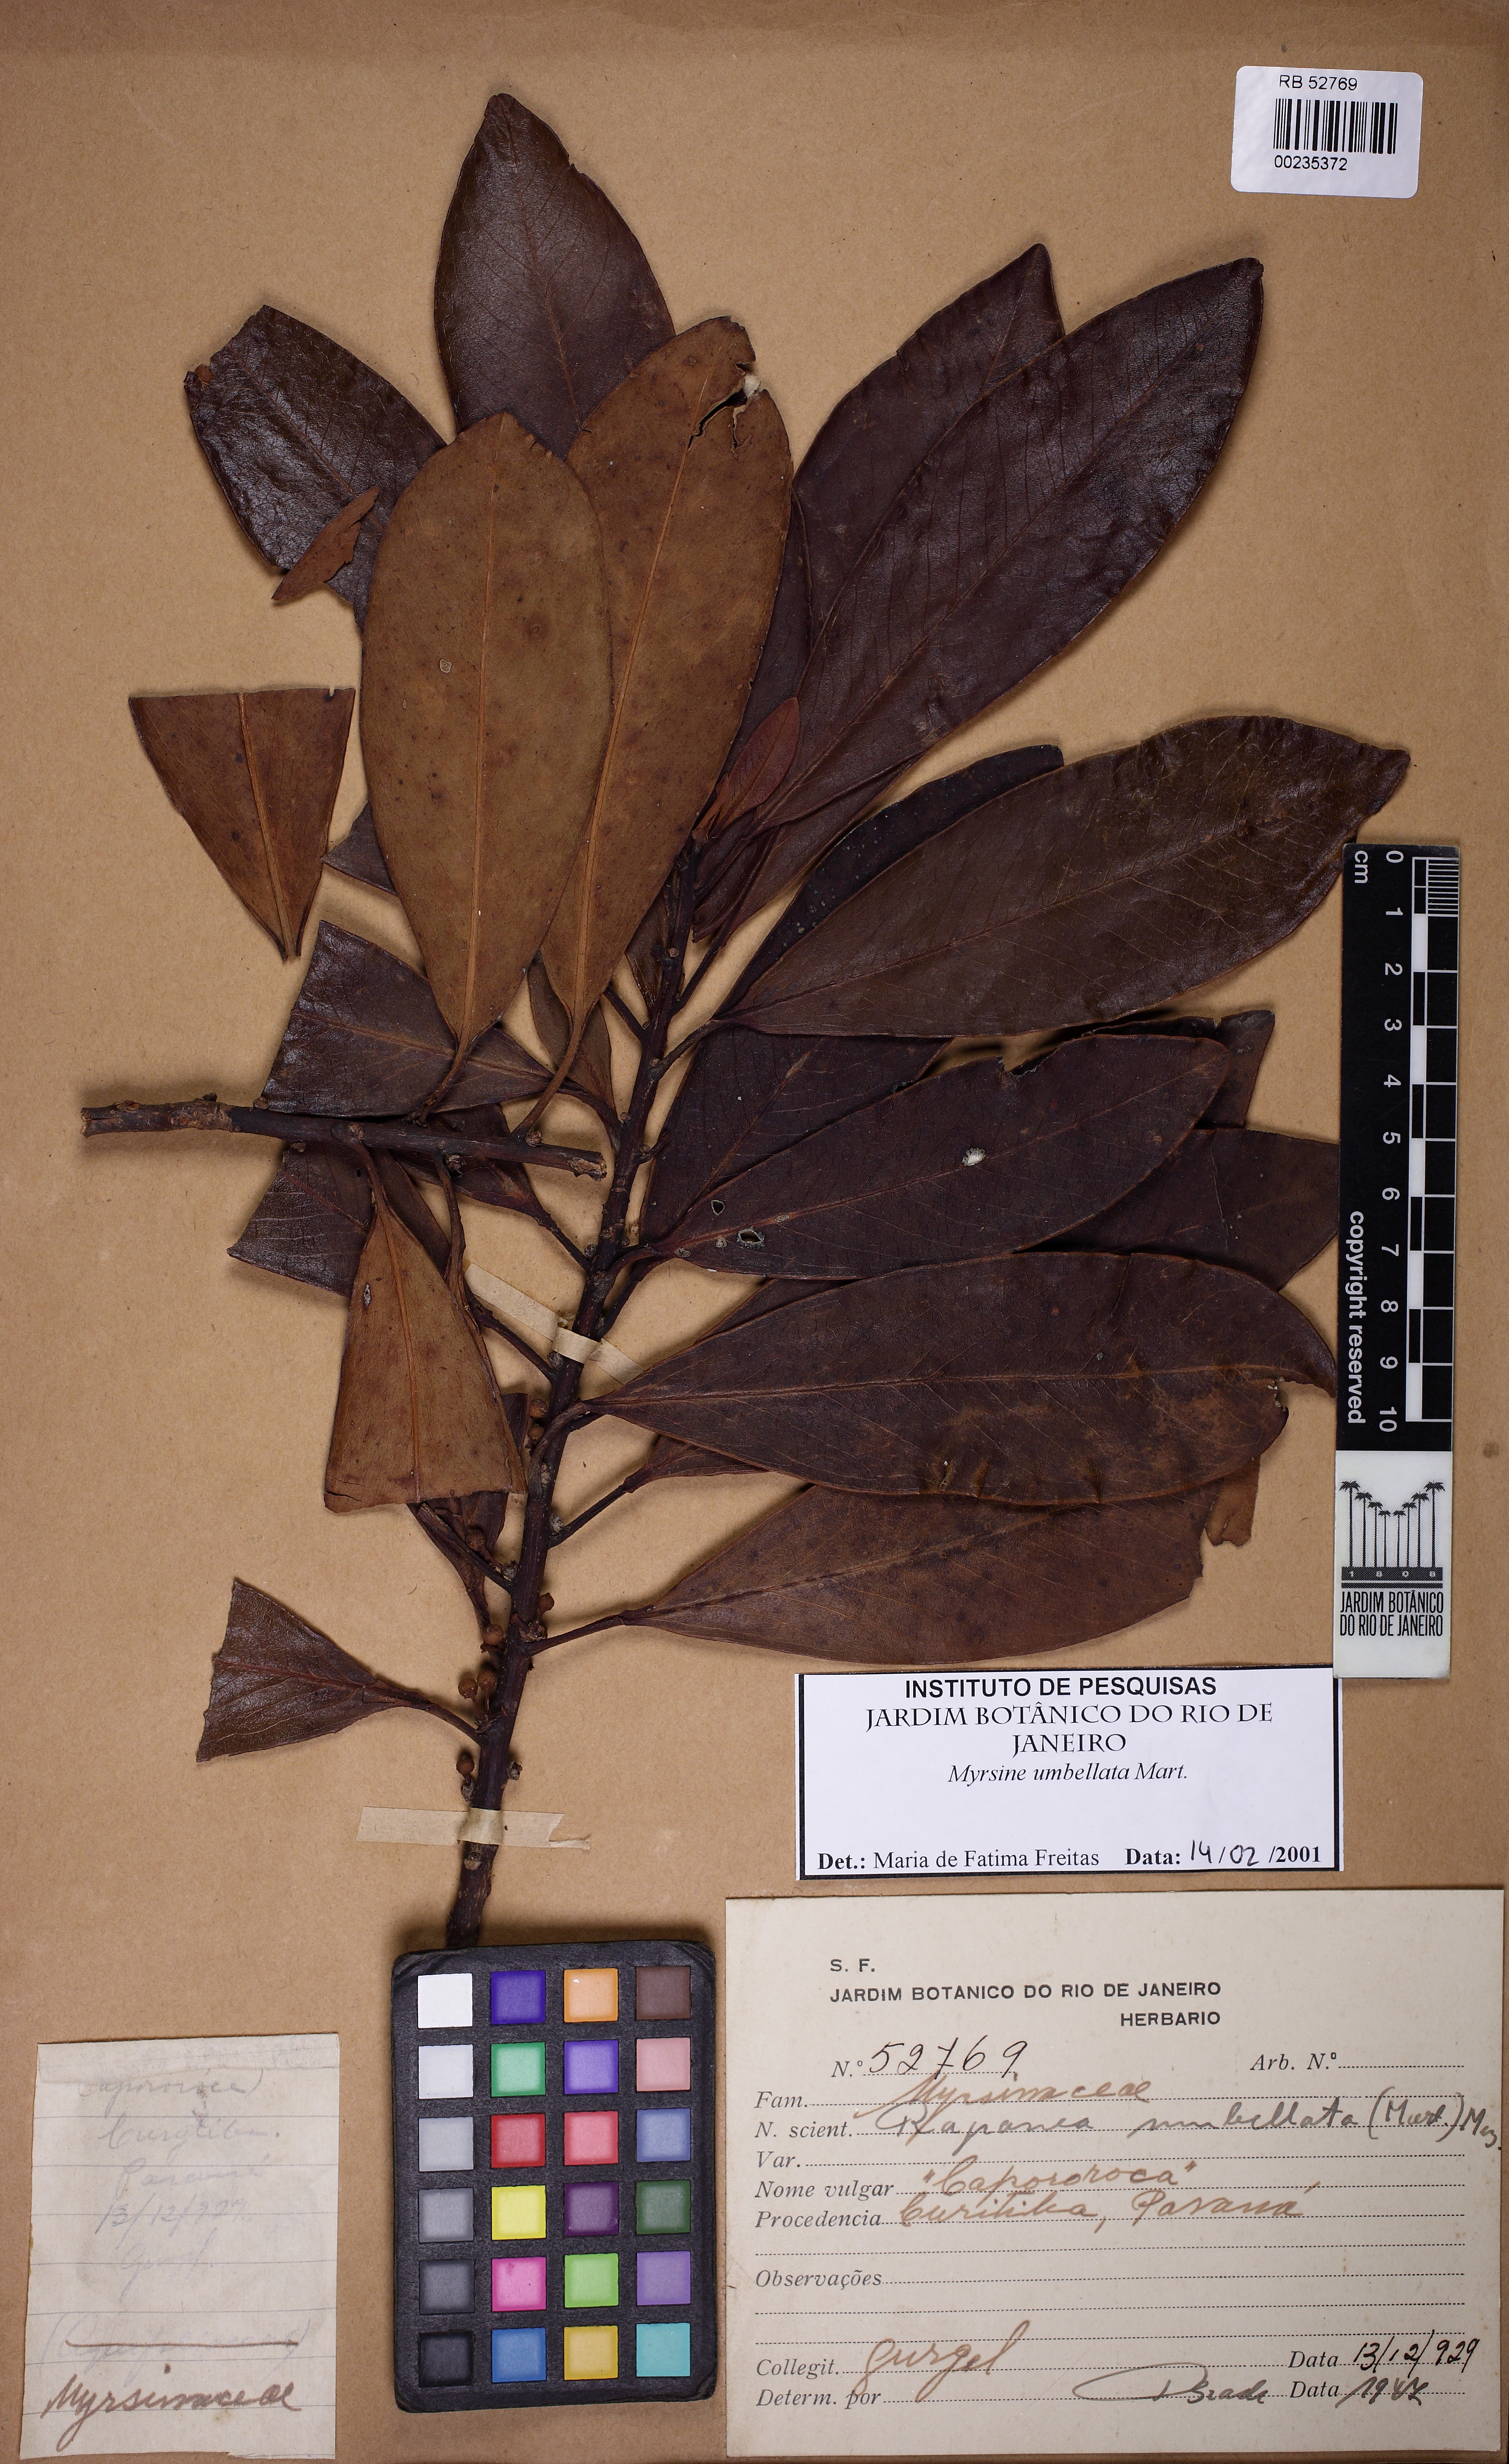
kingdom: Plantae
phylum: Tracheophyta
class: Magnoliopsida
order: Ericales
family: Primulaceae
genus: Myrsine
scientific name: Myrsine umbellata
